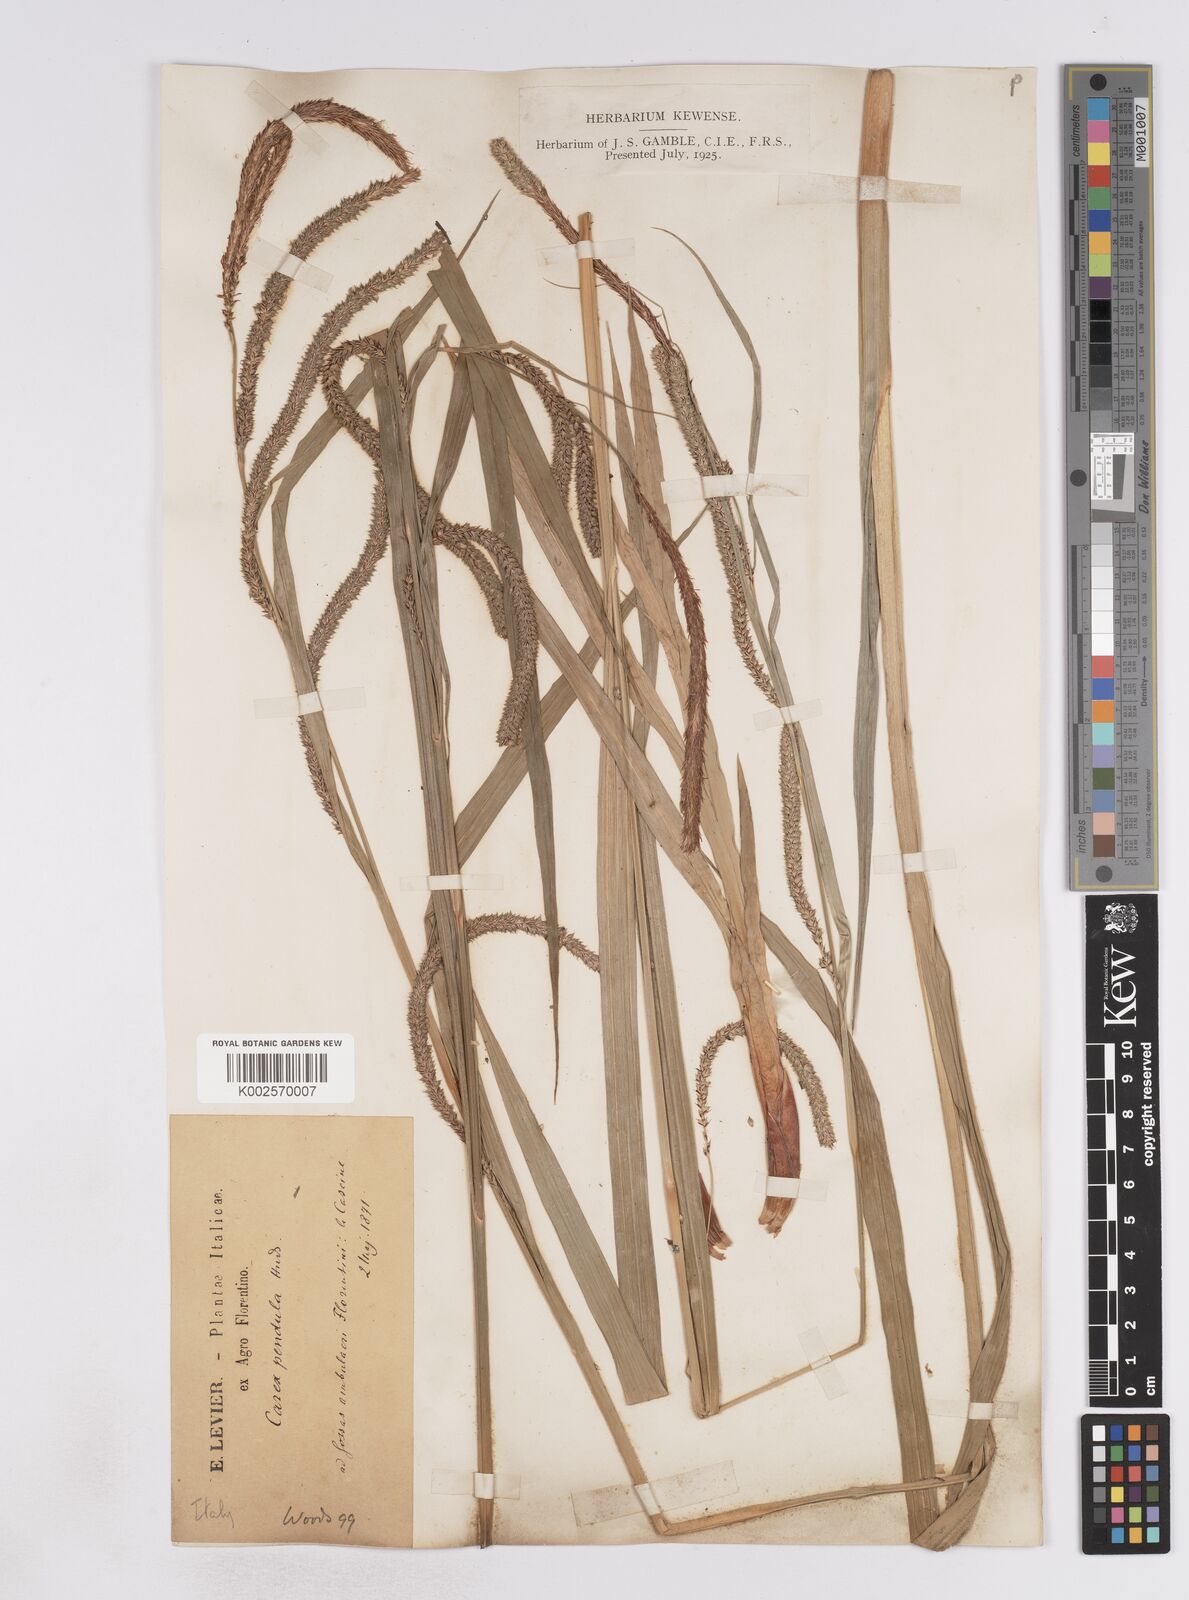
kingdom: Plantae
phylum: Tracheophyta
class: Liliopsida
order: Poales
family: Cyperaceae
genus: Carex
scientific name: Carex pendula
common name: Pendulous sedge
